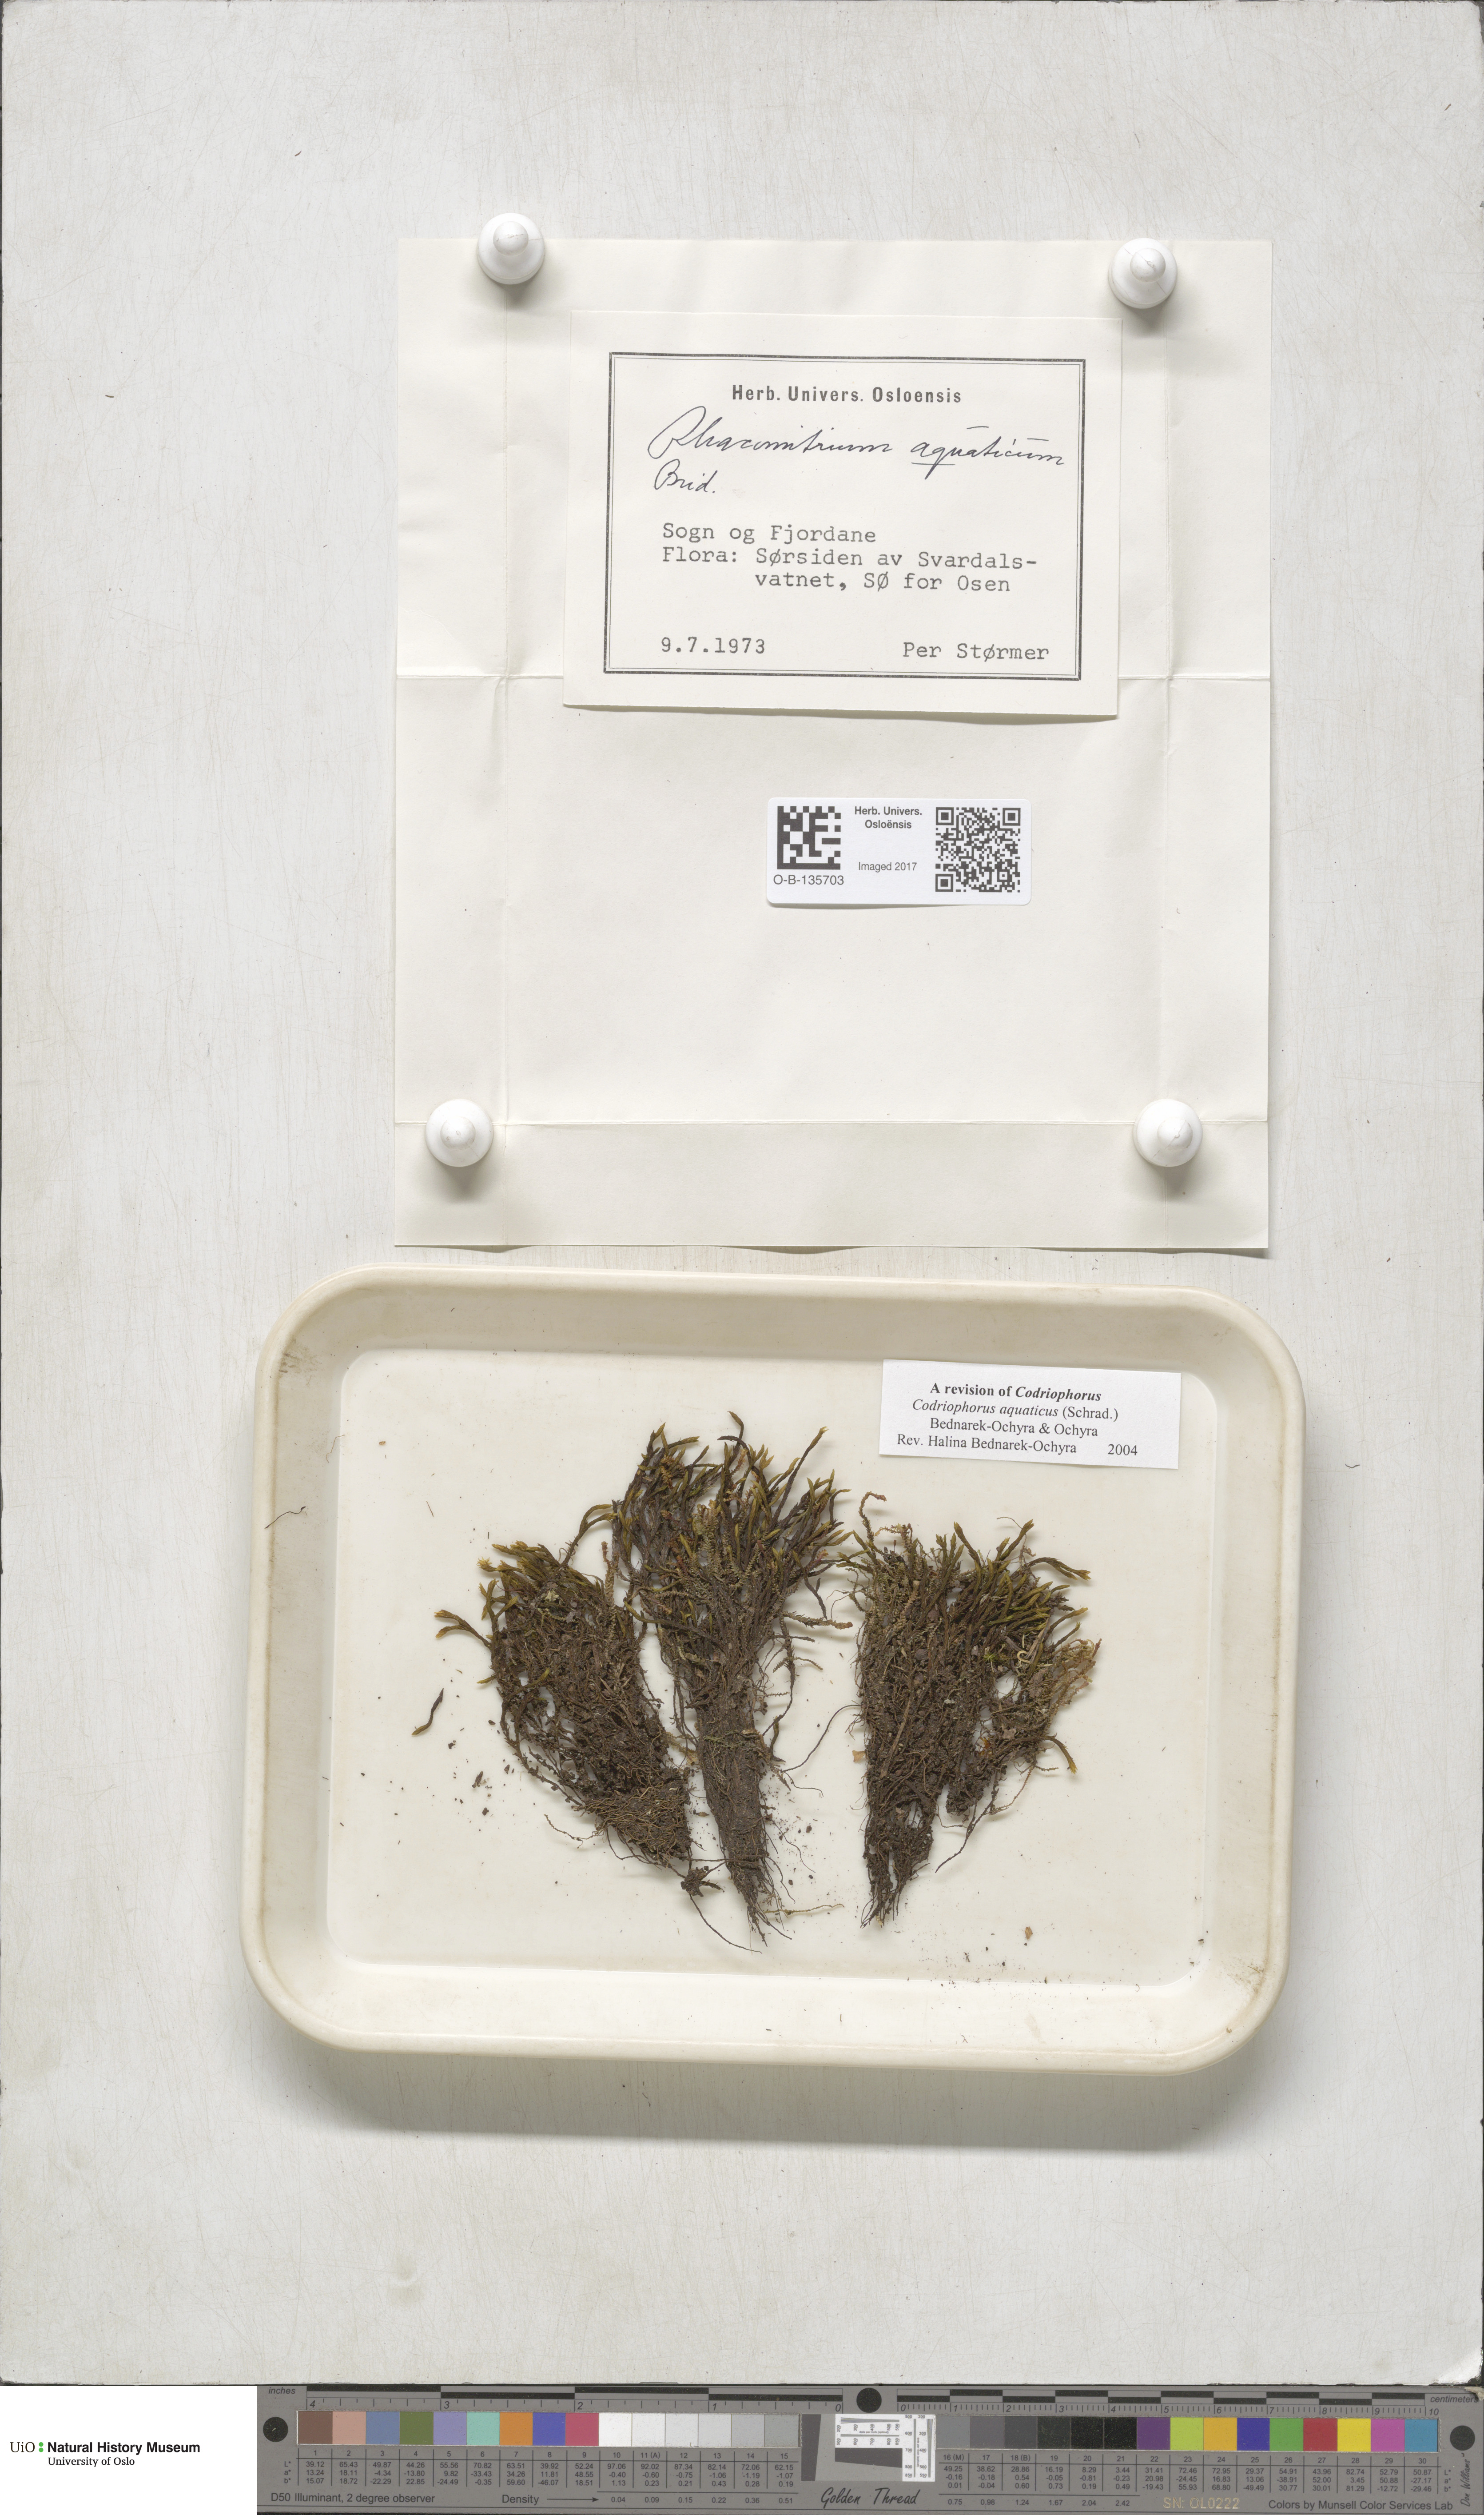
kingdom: Plantae
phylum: Bryophyta
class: Bryopsida
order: Grimmiales
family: Grimmiaceae
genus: Codriophorus
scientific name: Codriophorus aquaticus
